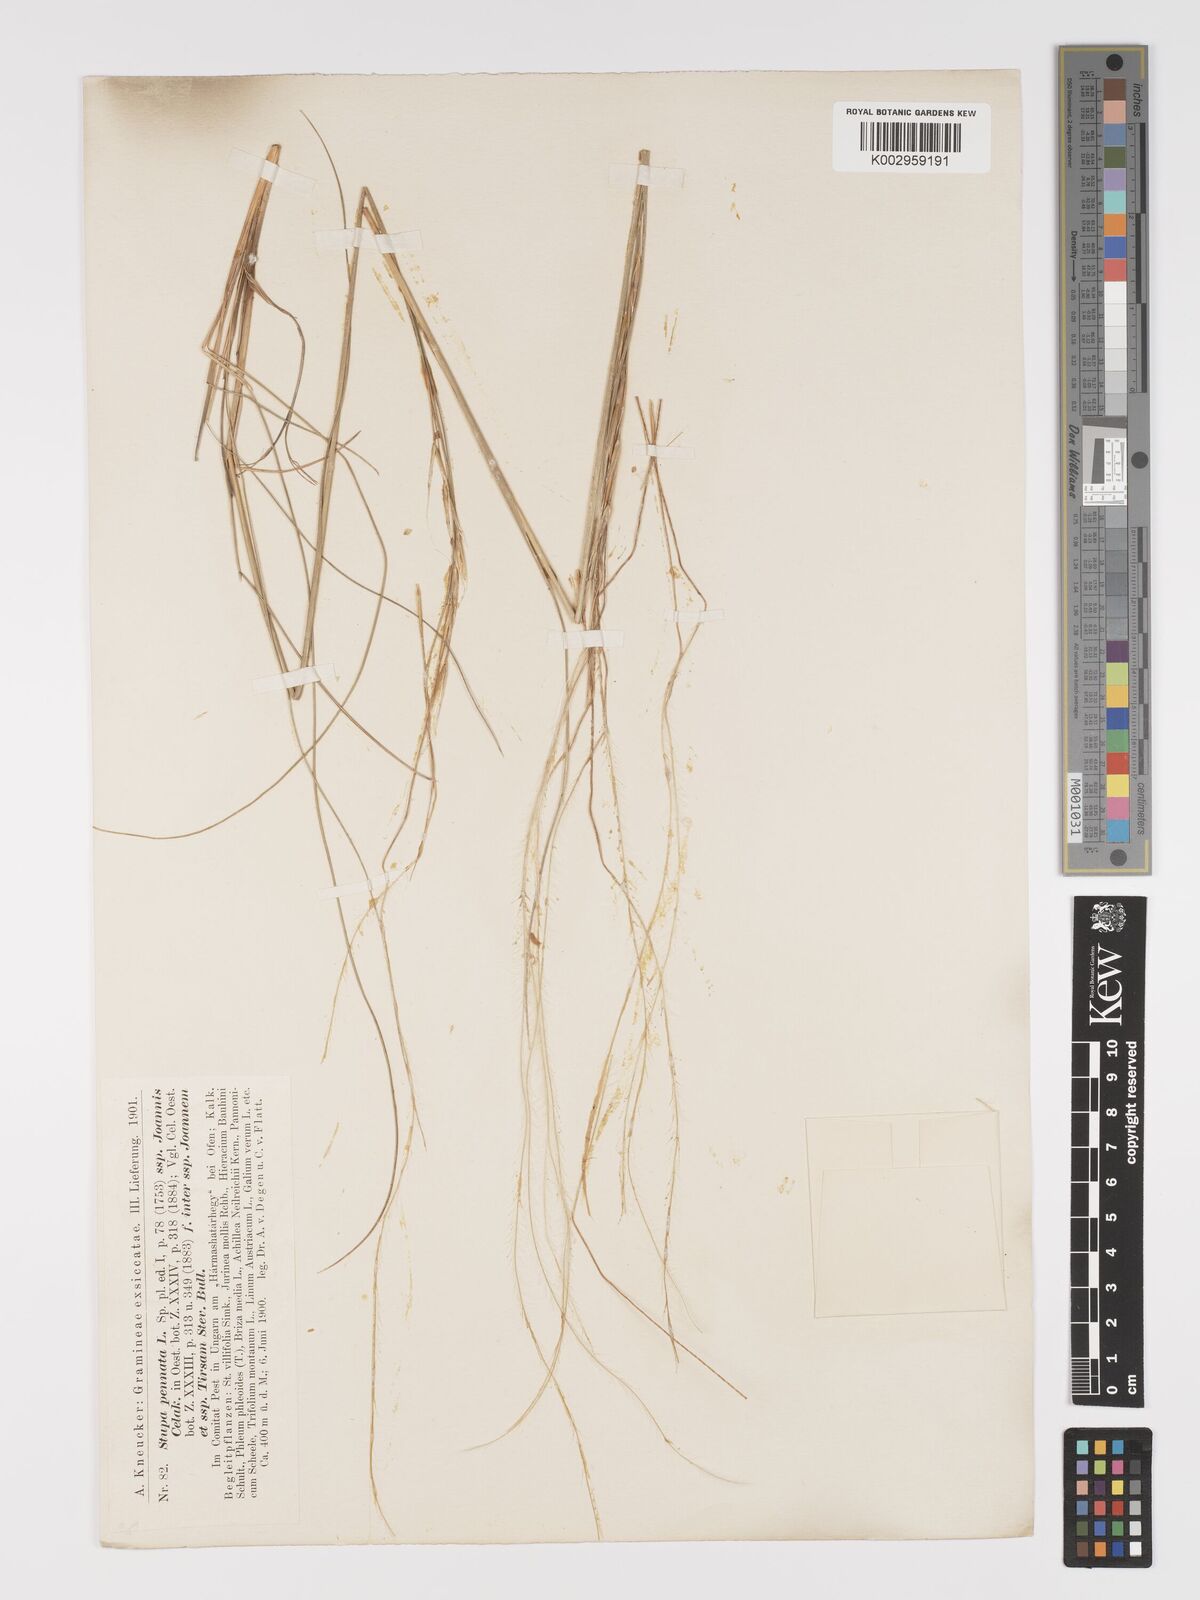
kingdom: Plantae
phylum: Tracheophyta
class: Liliopsida
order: Poales
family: Poaceae
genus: Stipa
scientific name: Stipa pennata
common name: European feather grass
